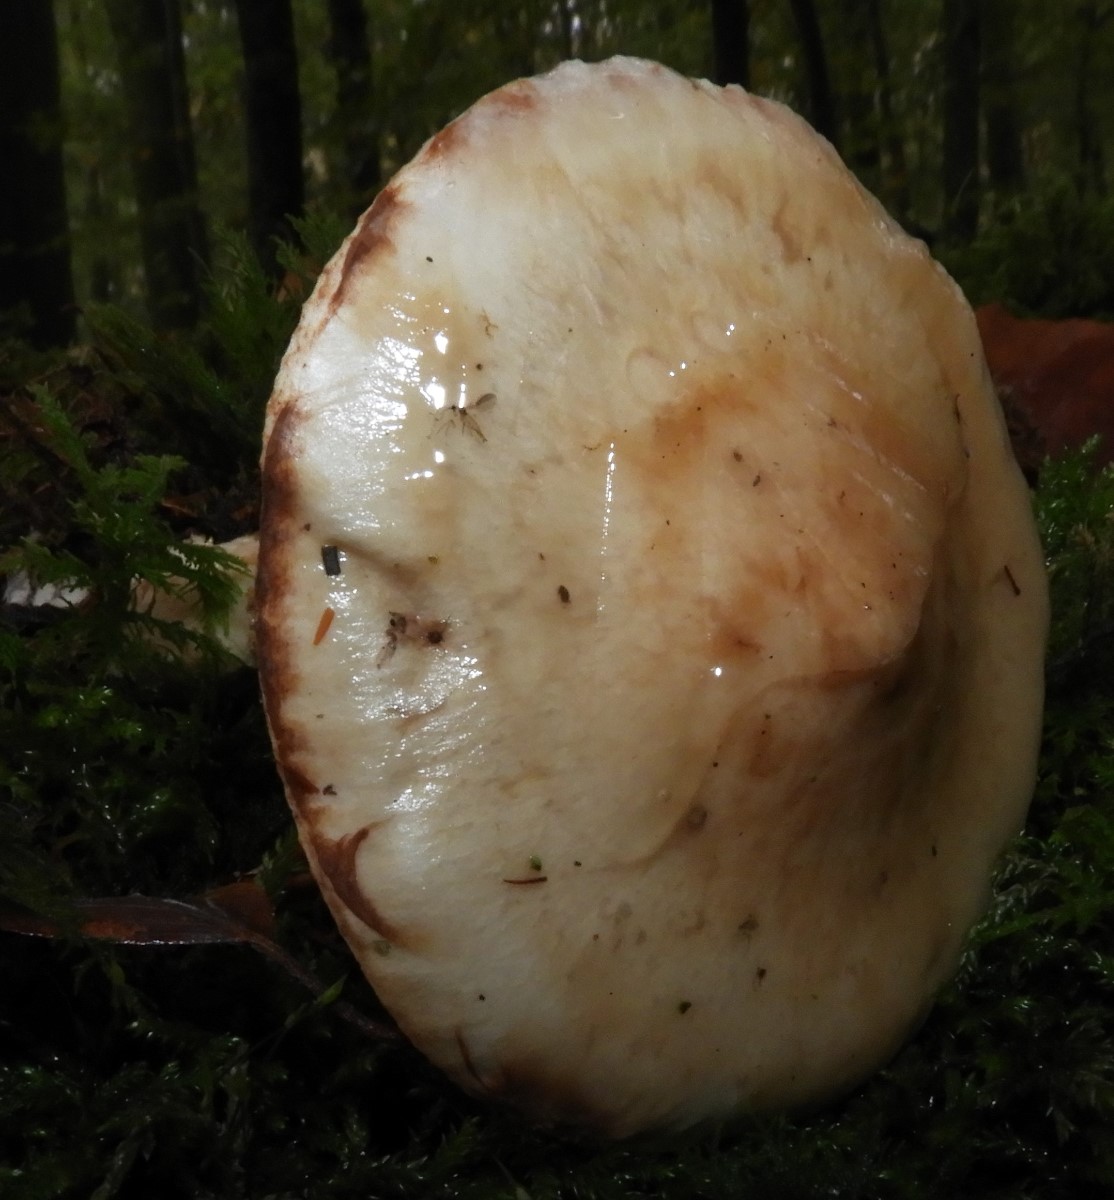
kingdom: Fungi
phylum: Basidiomycota
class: Agaricomycetes
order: Agaricales
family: Strophariaceae
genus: Pholiota
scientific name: Pholiota
